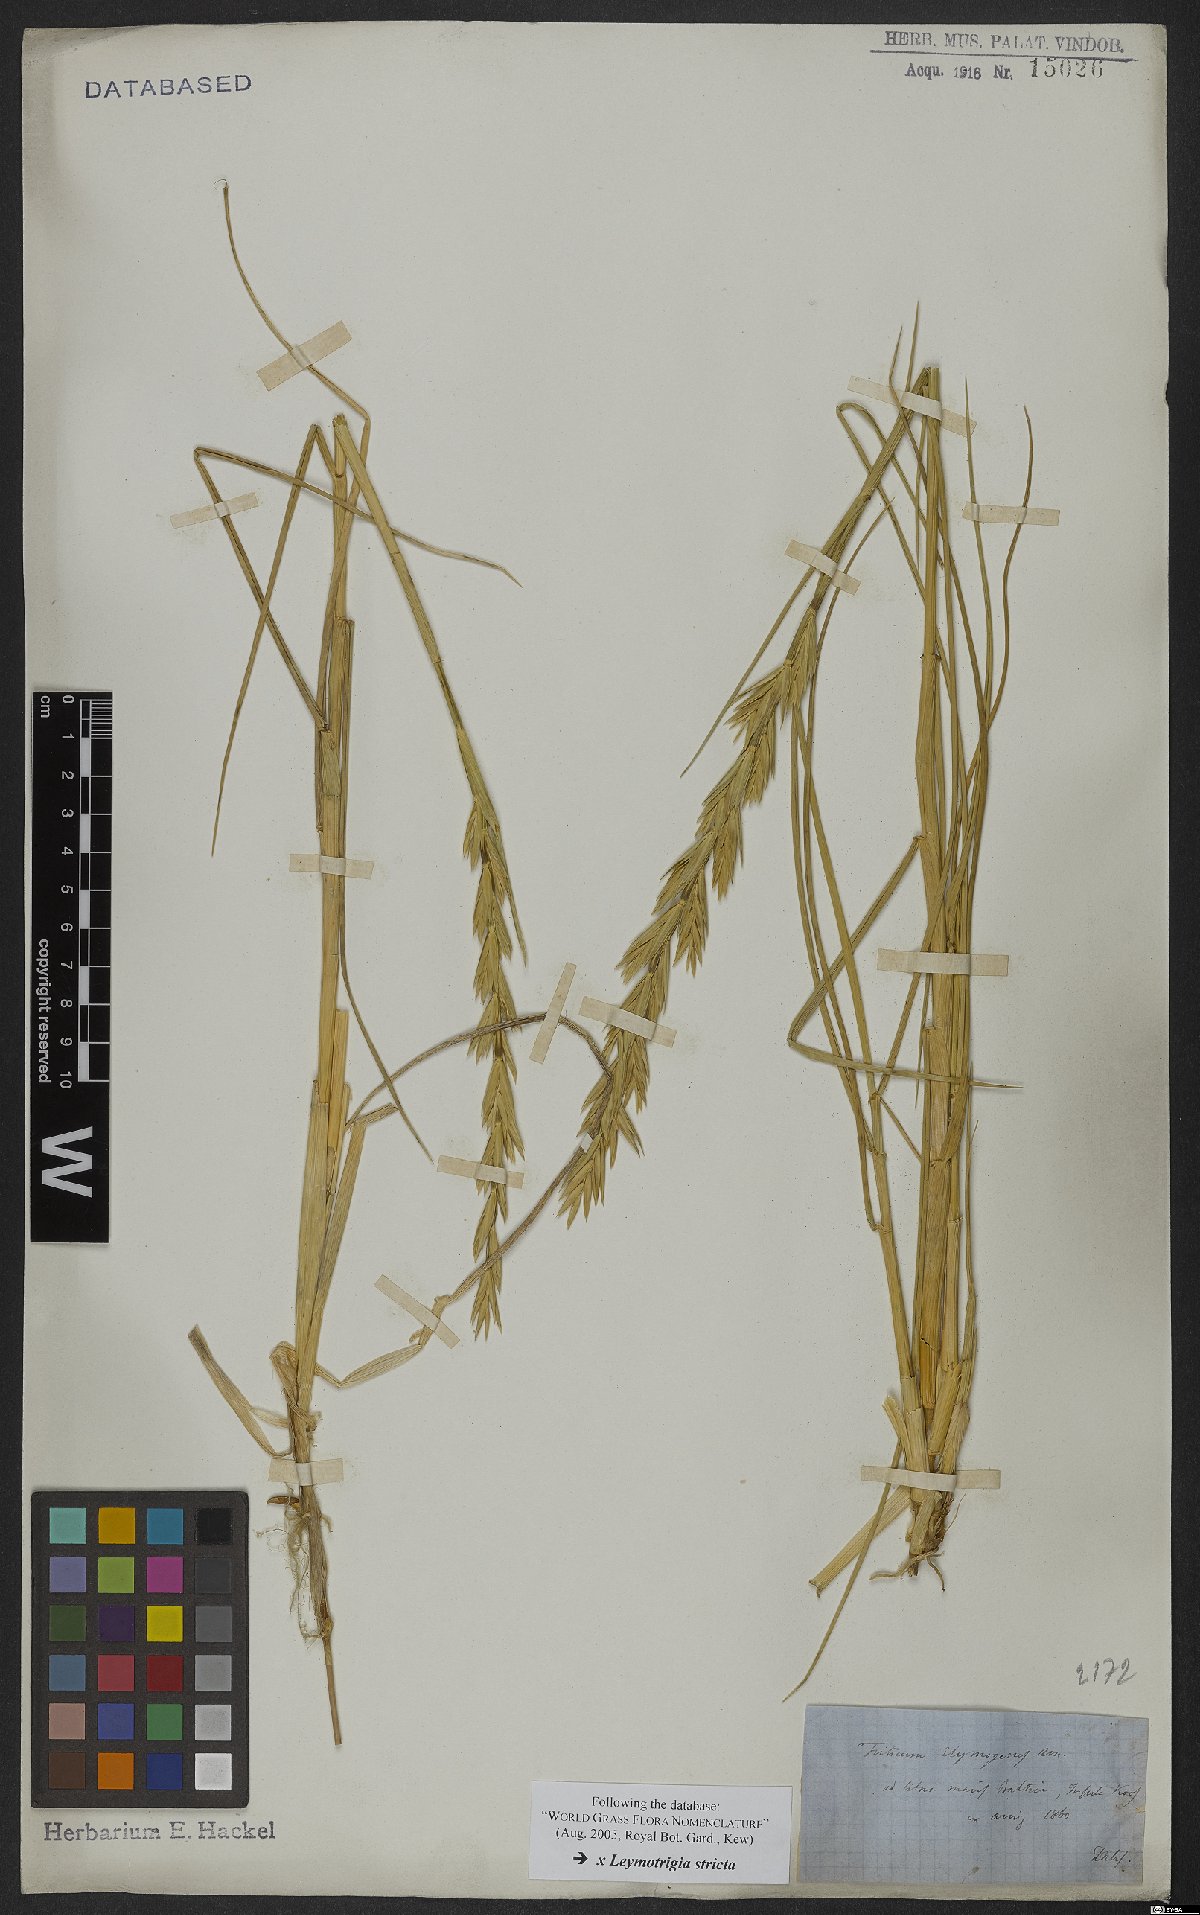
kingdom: Plantae
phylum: Tracheophyta
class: Liliopsida
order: Poales
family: Poaceae
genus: Elyleymus
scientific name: Elyleymus strictus
